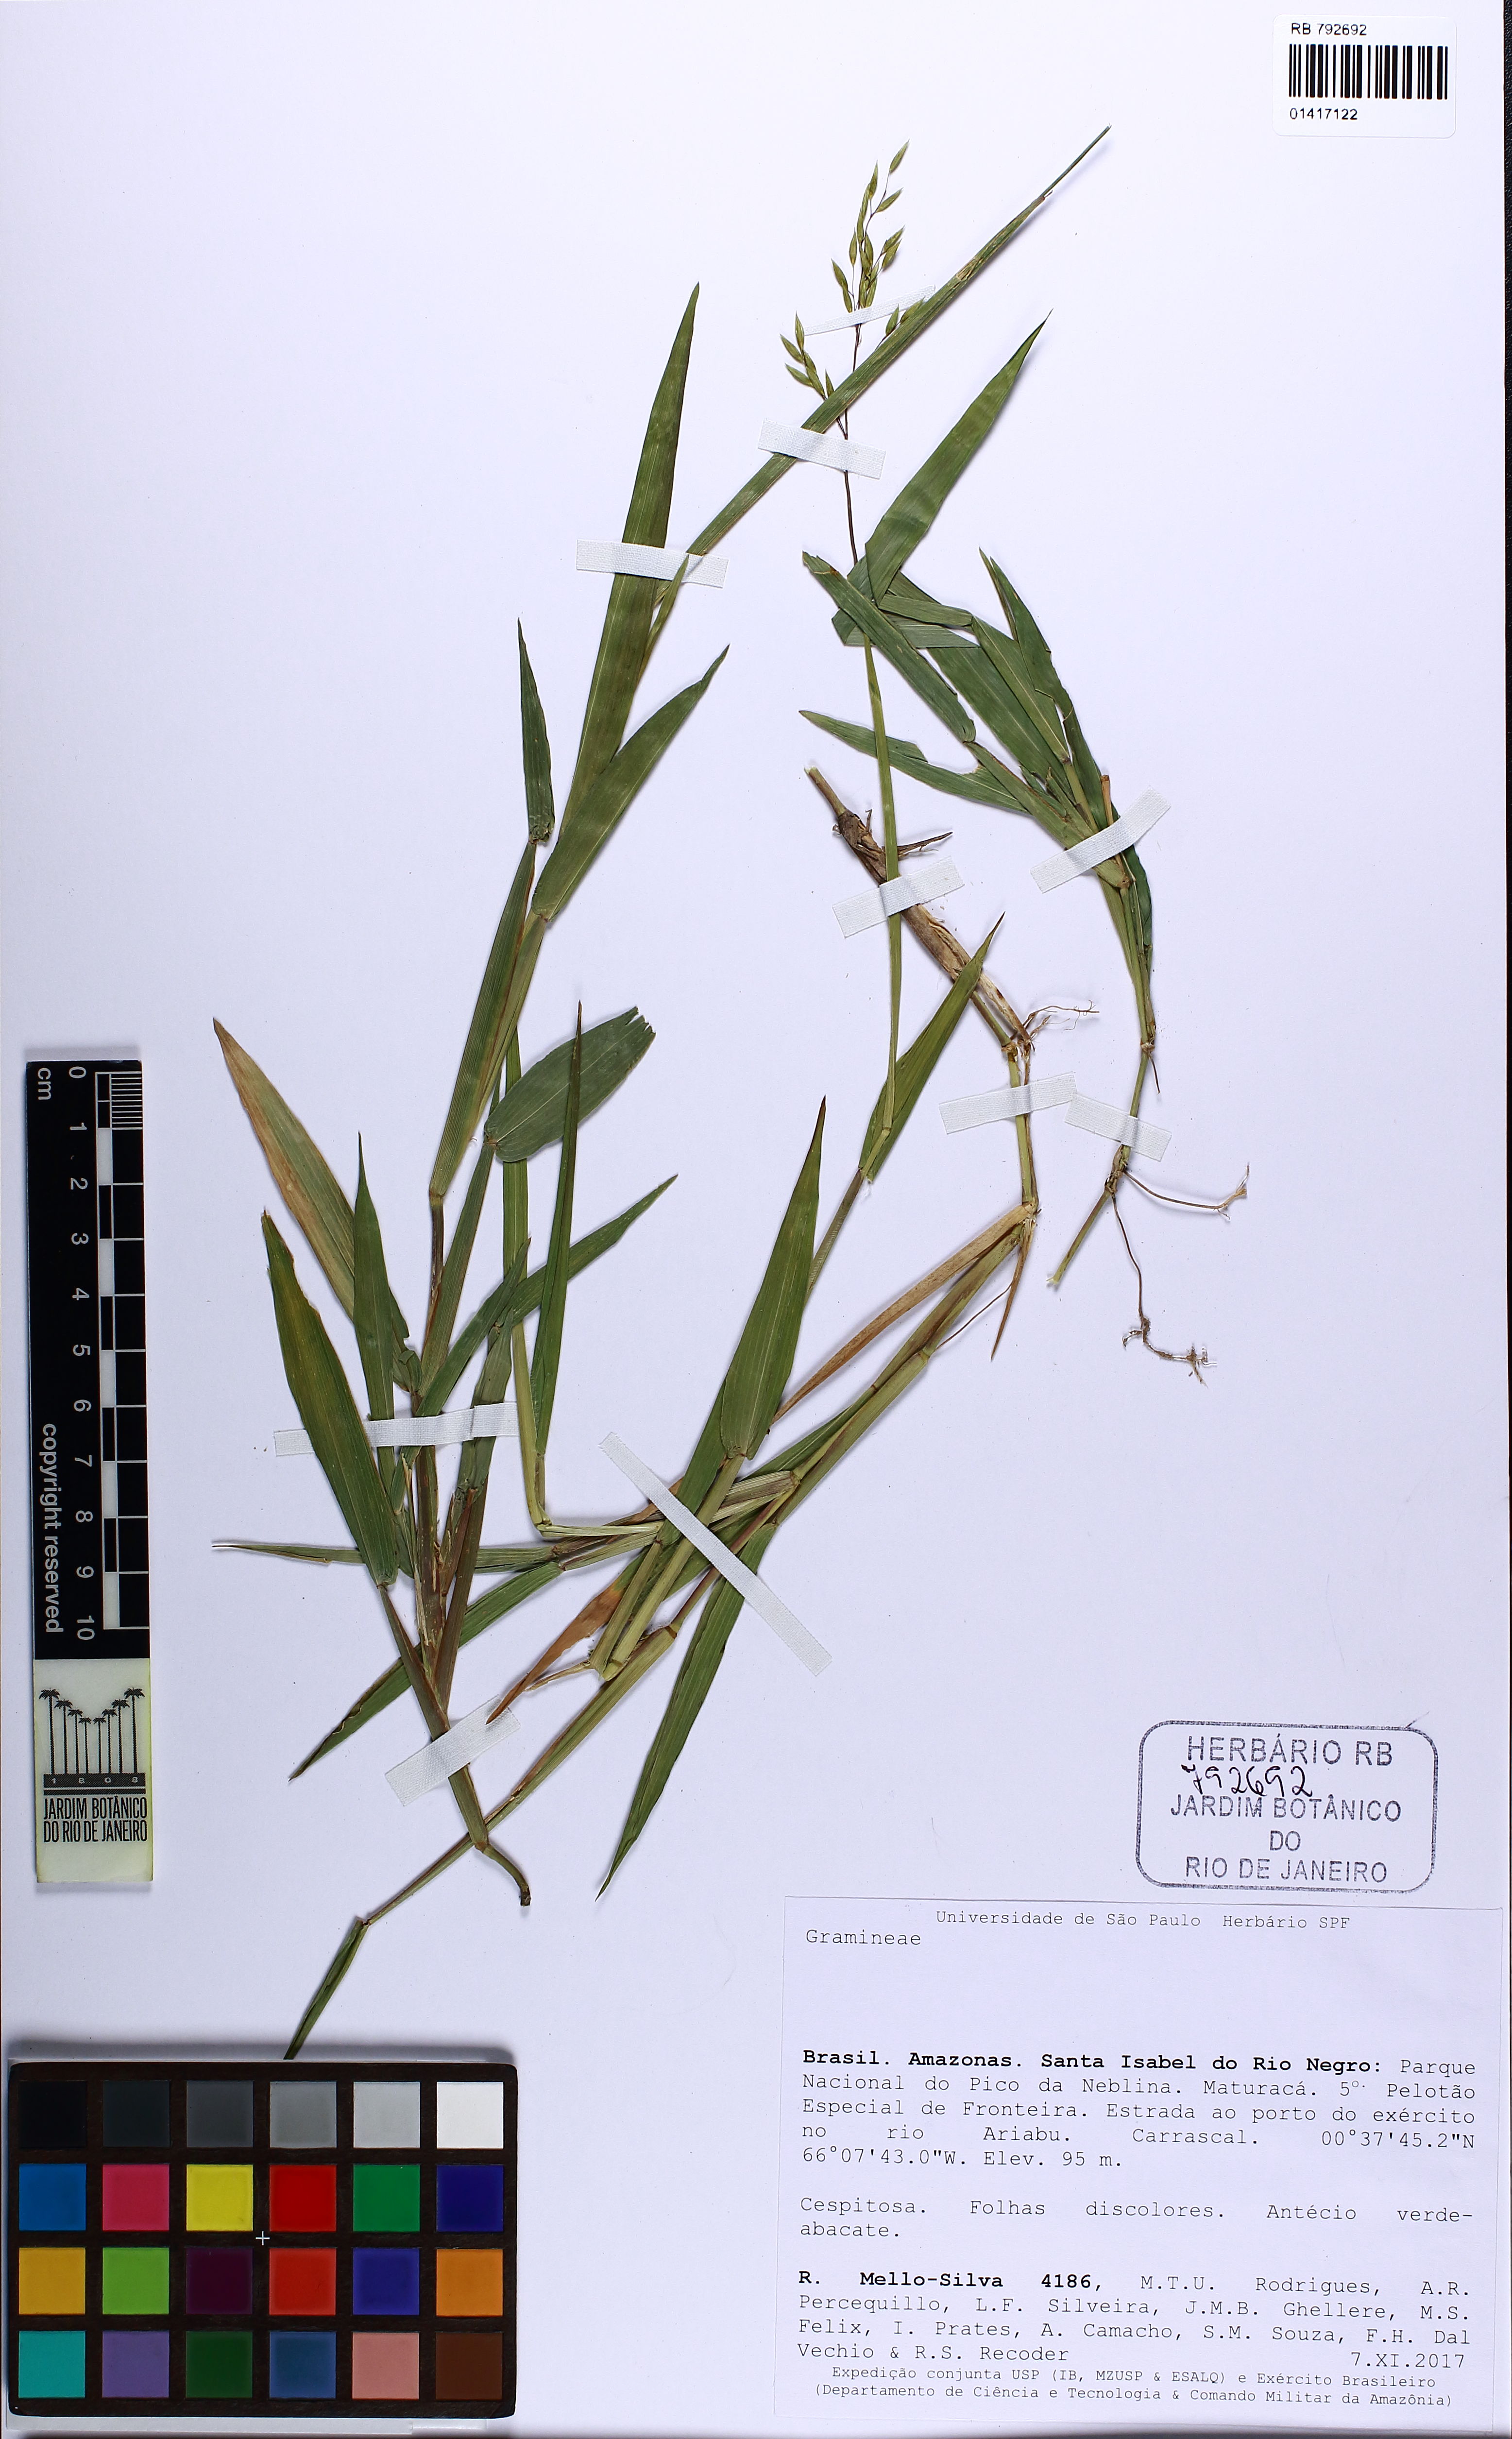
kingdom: Plantae
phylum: Tracheophyta
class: Liliopsida
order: Poales
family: Poaceae
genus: Homolepis
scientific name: Homolepis aturensis
